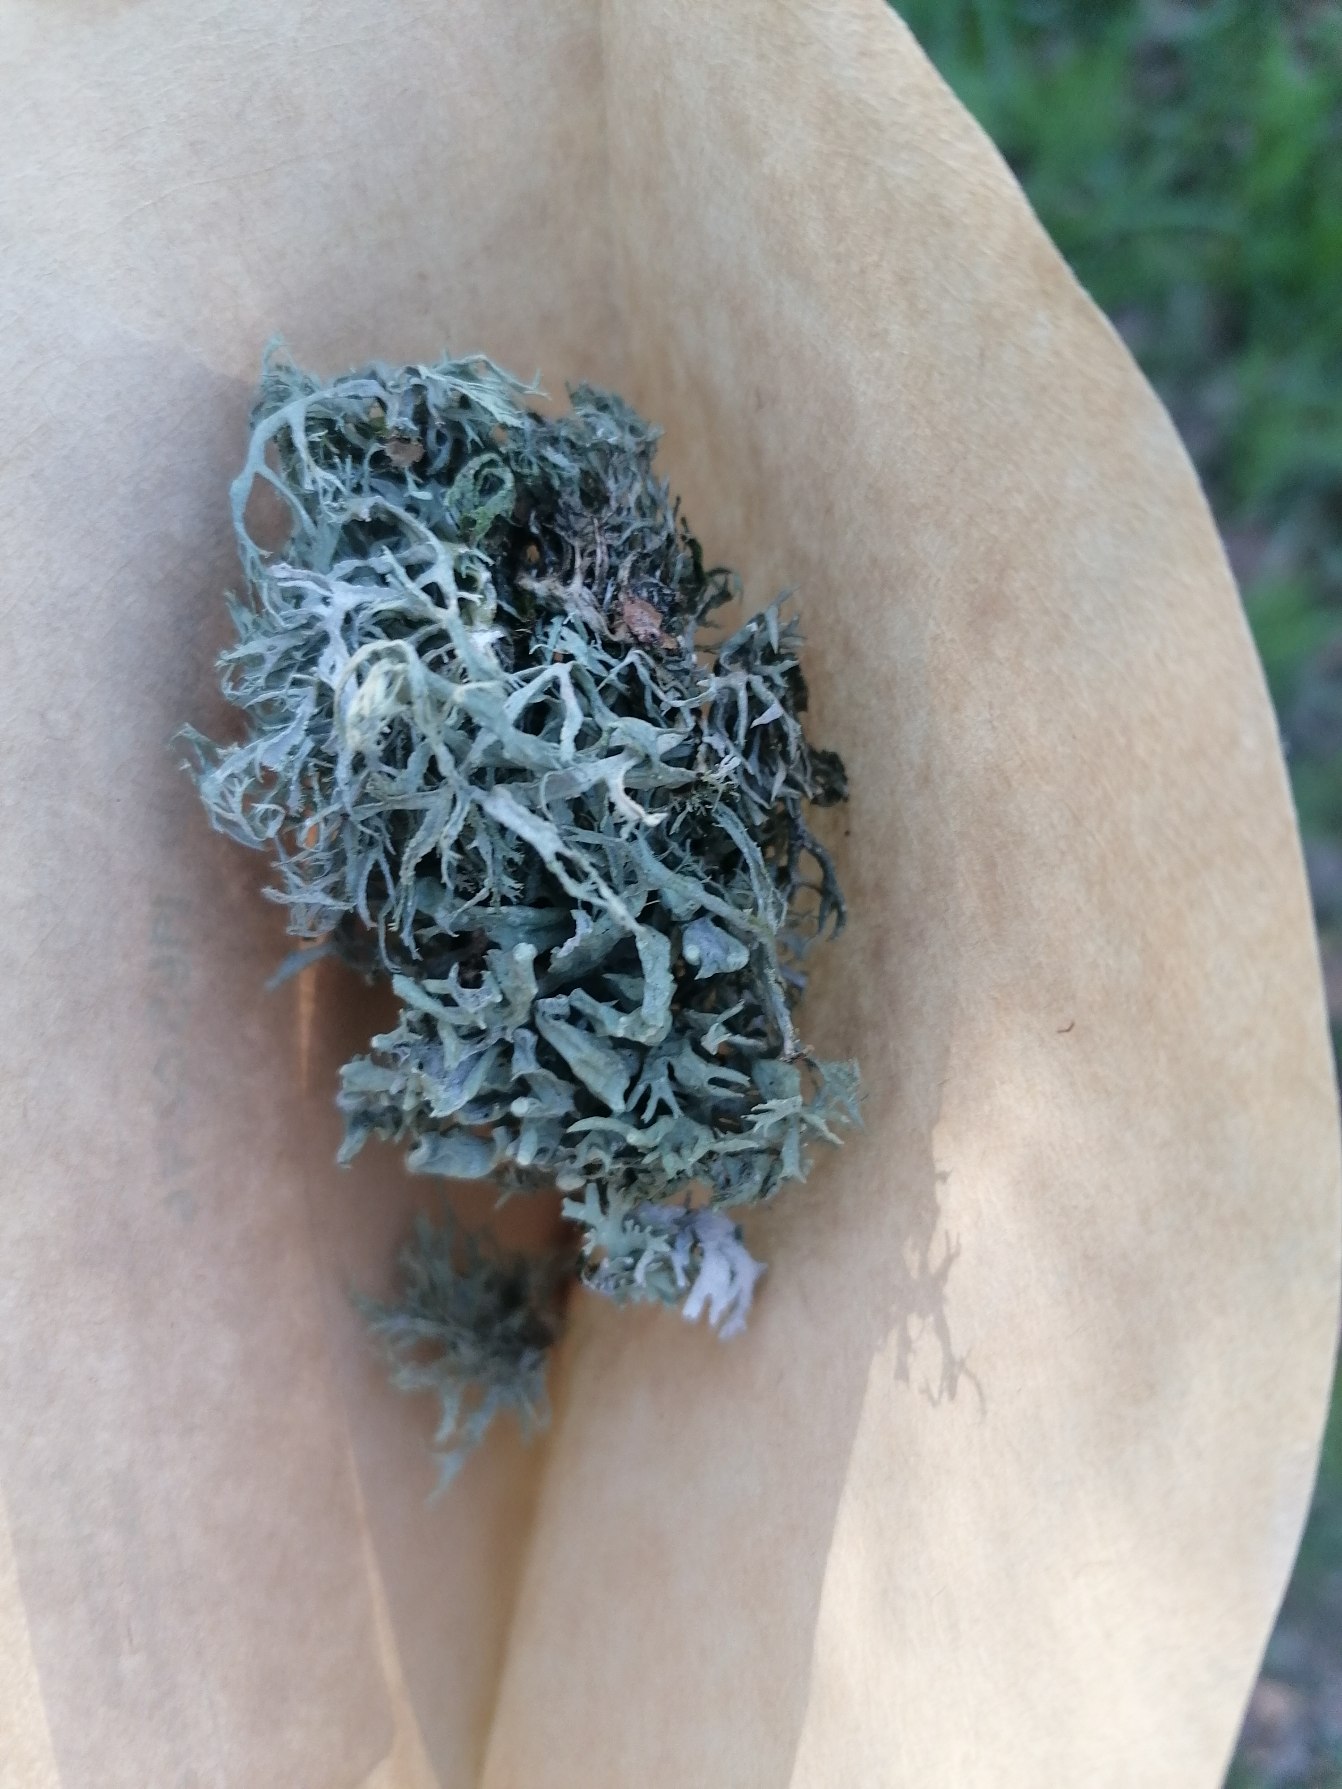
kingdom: Fungi
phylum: Ascomycota
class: Lecanoromycetes
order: Lecanorales
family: Ramalinaceae
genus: Ramalina
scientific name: Ramalina farinacea
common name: Melet grenlav
